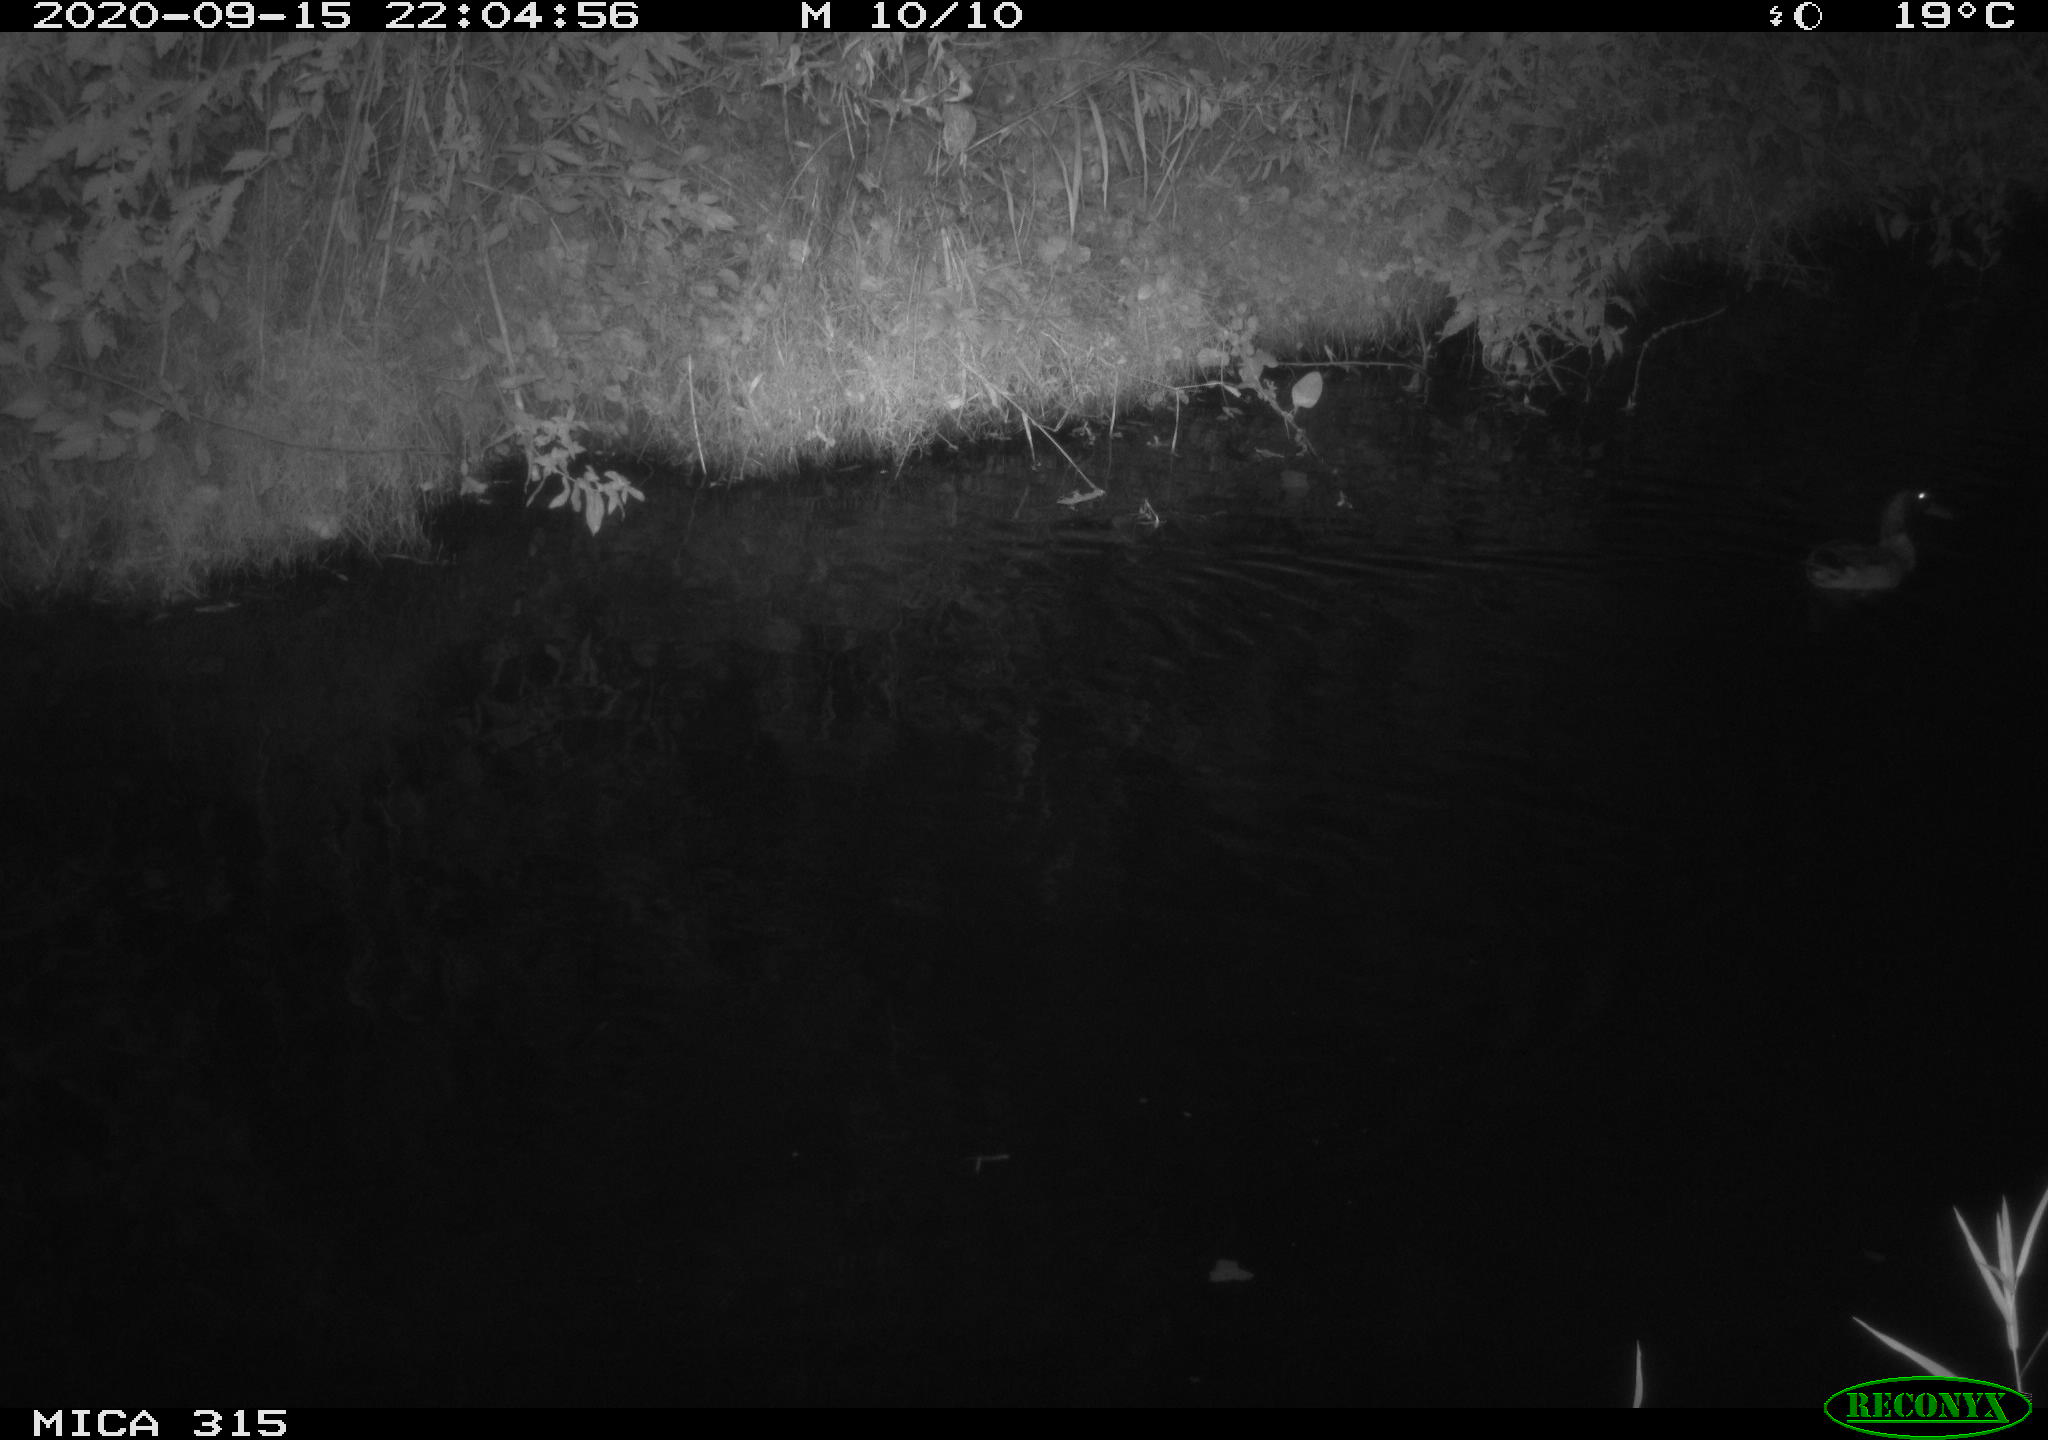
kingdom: Animalia
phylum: Chordata
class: Aves
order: Anseriformes
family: Anatidae
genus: Anas
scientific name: Anas platyrhynchos
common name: Mallard
